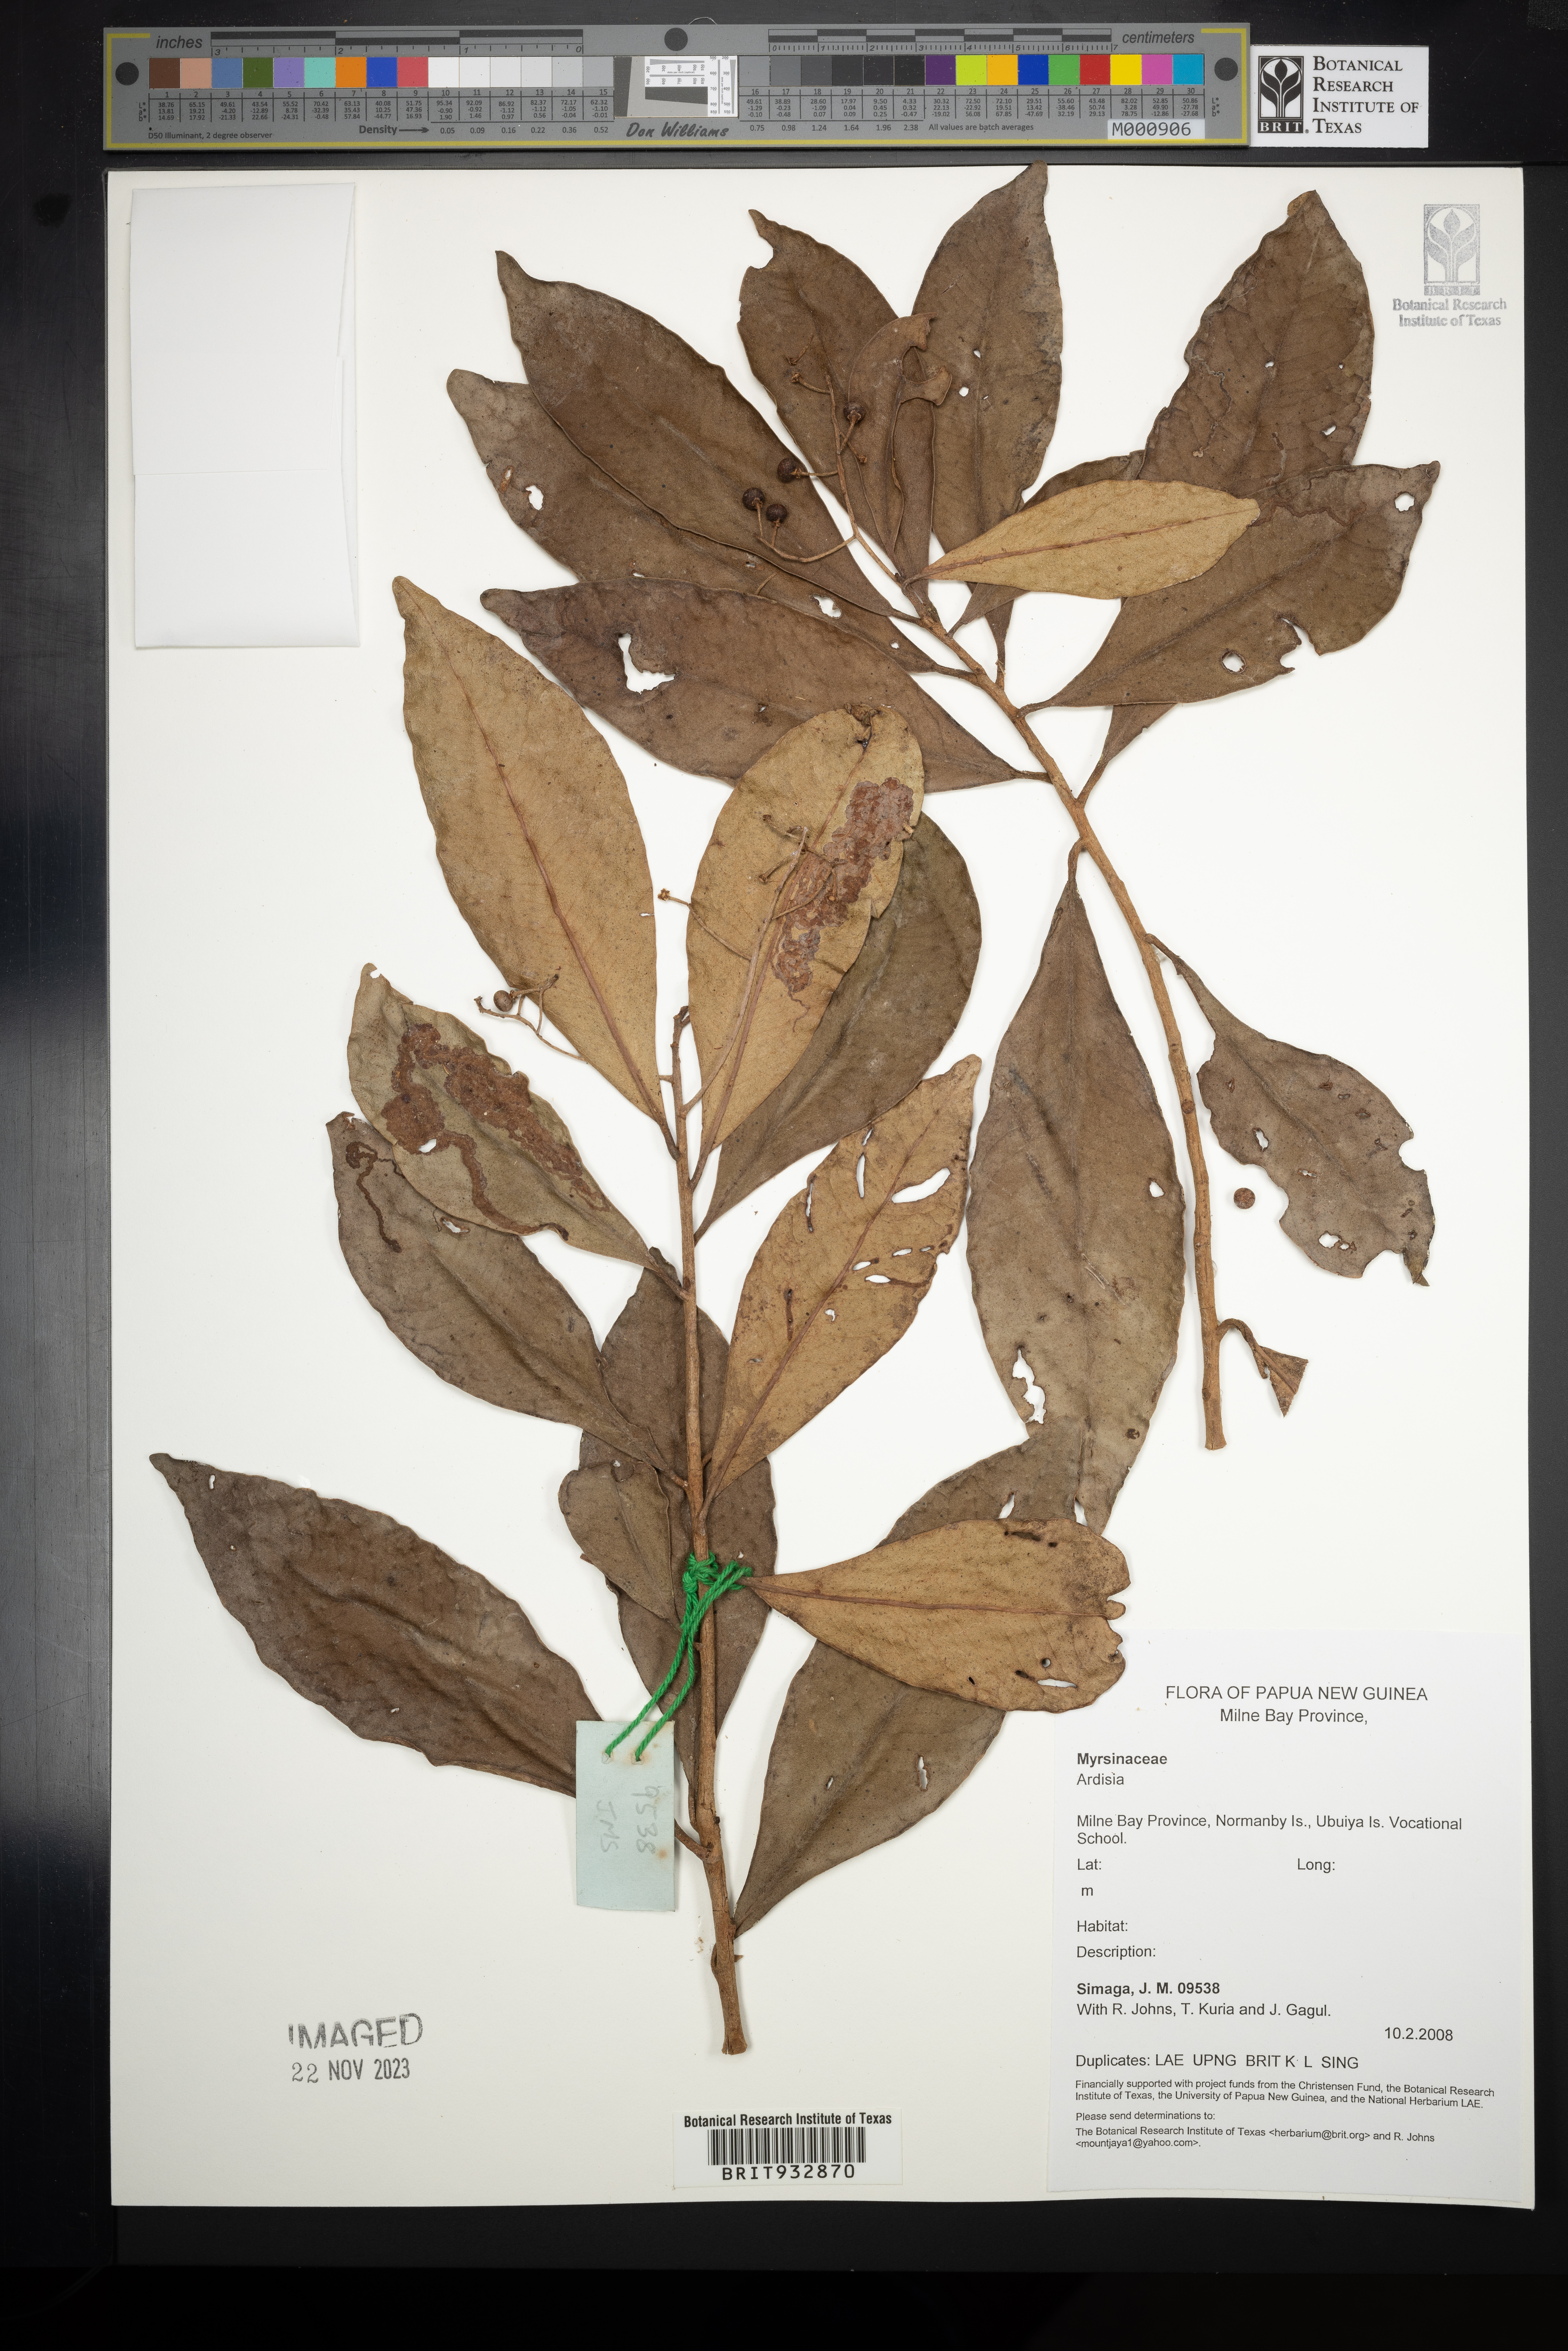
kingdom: Plantae
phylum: Tracheophyta
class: Magnoliopsida
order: Ericales
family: Primulaceae
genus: Ardisia
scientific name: Ardisia
